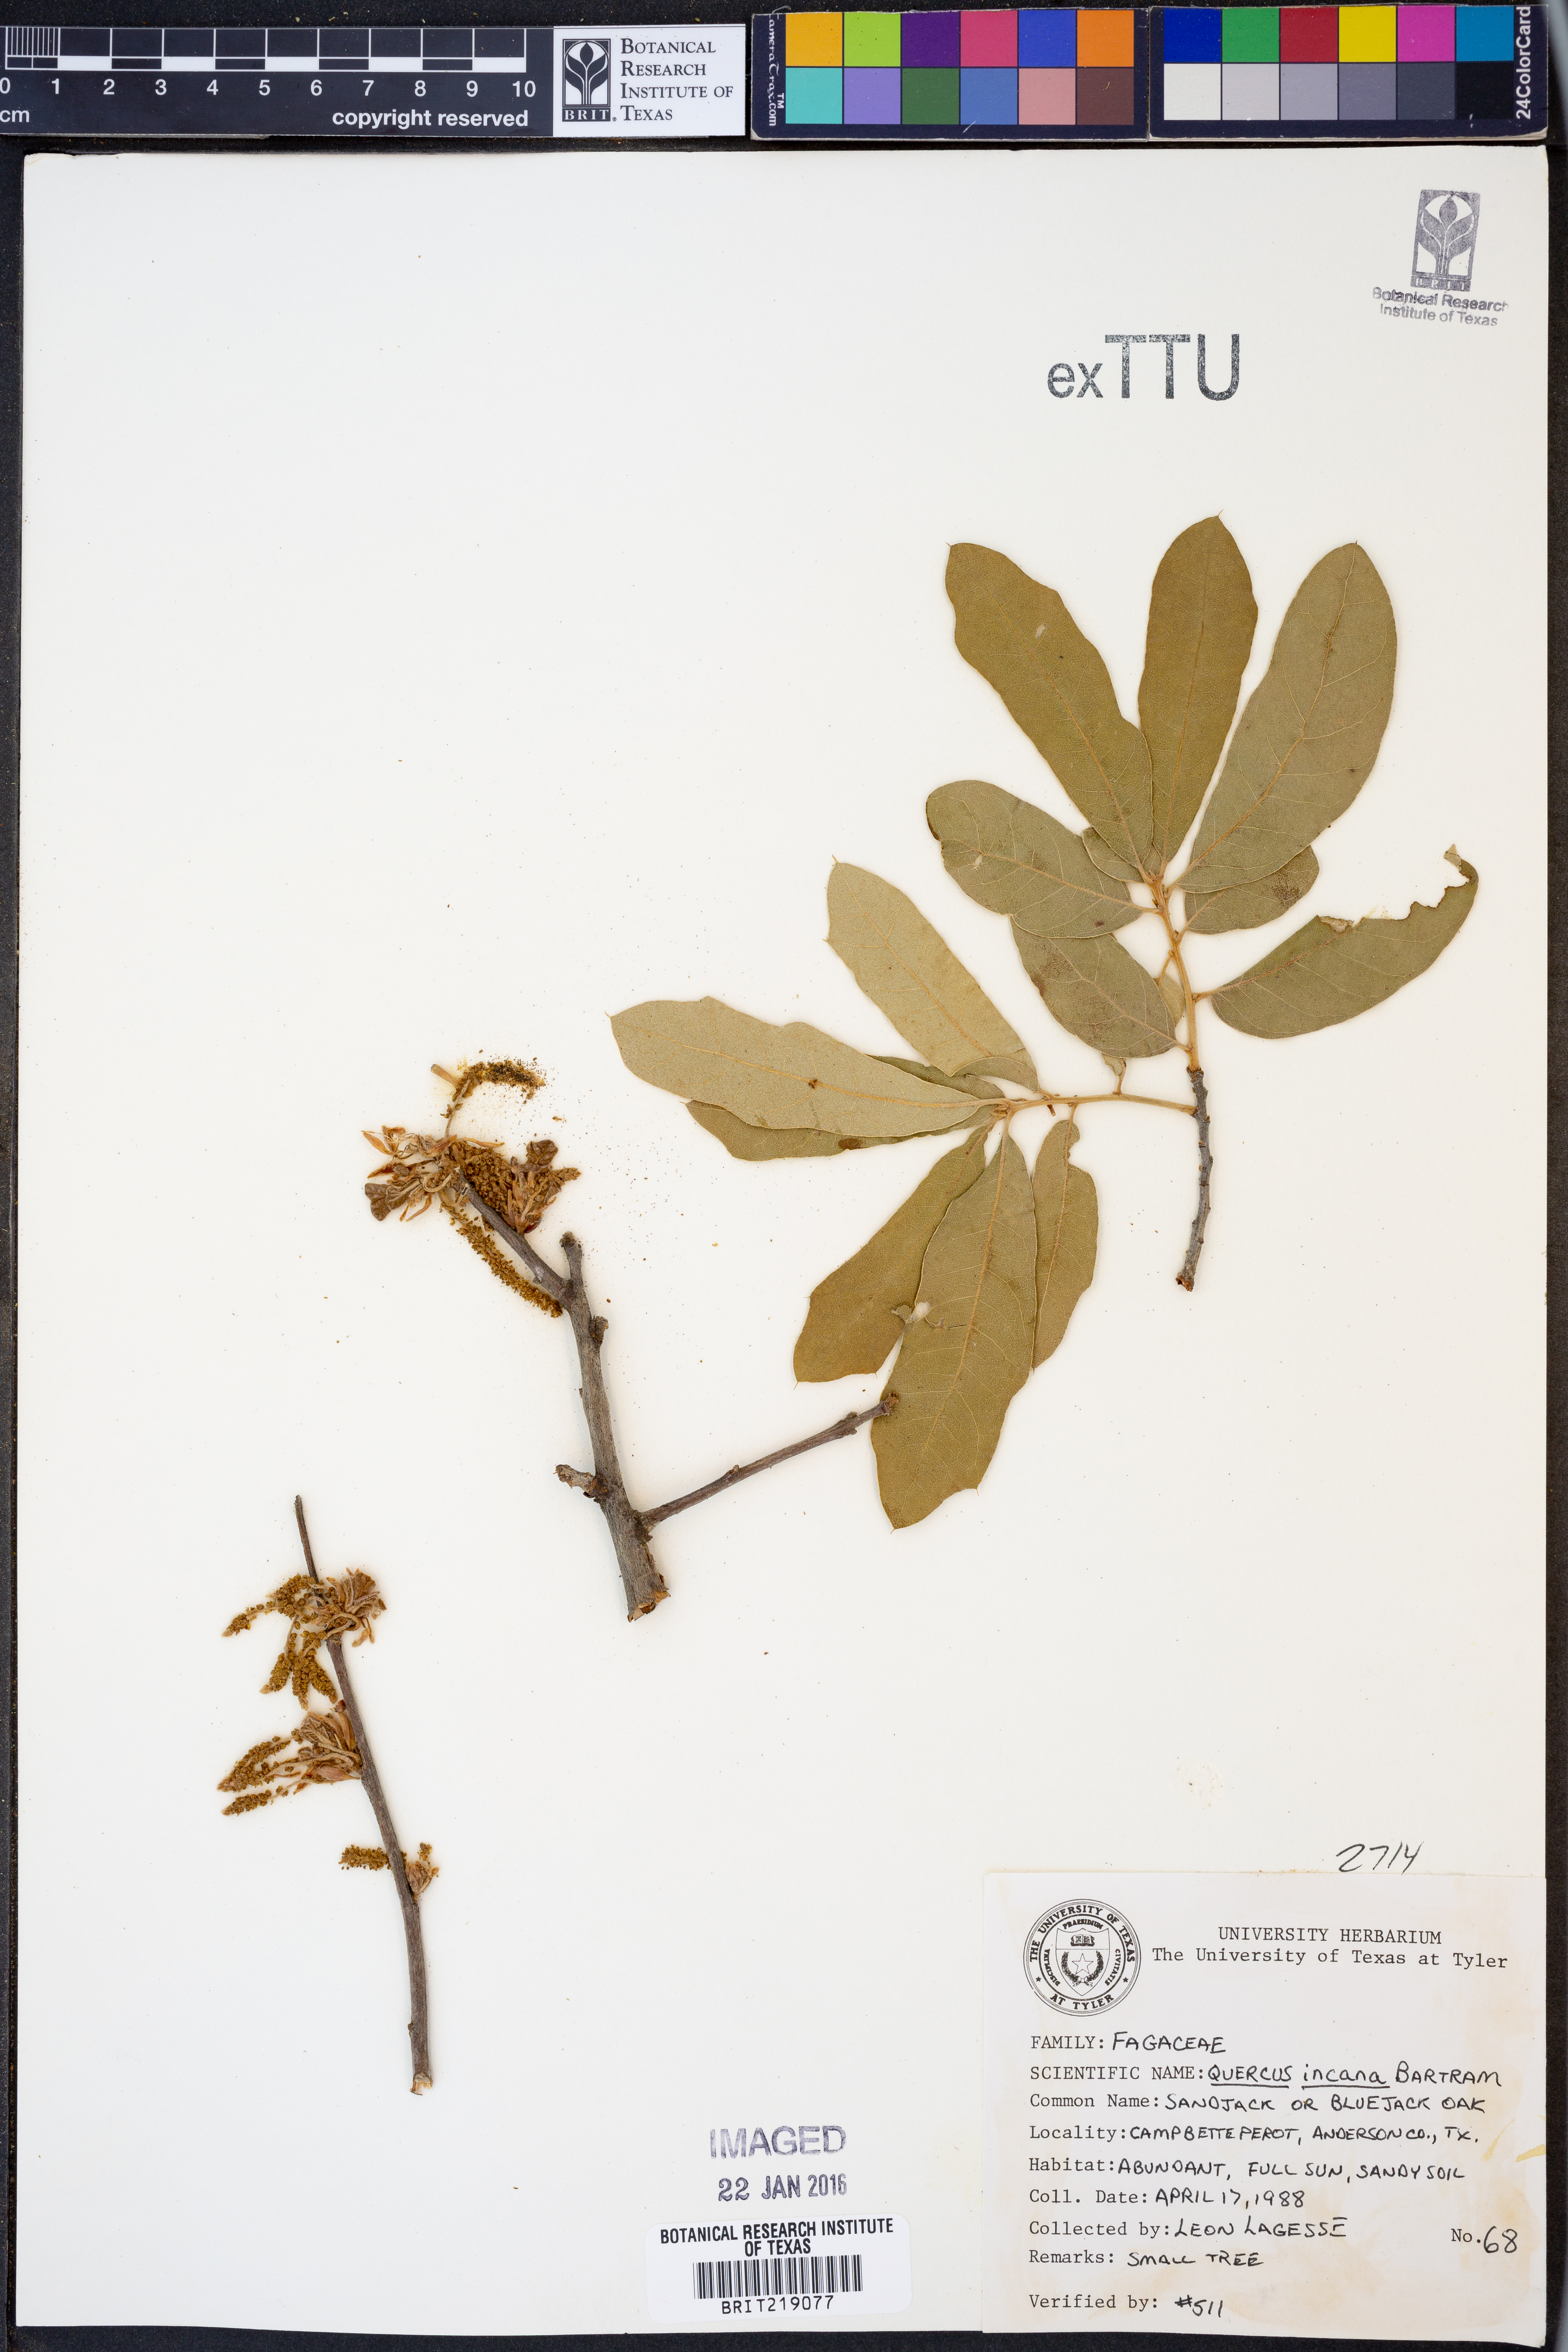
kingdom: Plantae
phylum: Tracheophyta
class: Magnoliopsida
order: Fagales
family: Fagaceae
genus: Quercus
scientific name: Quercus incana
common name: Bluejack oak
